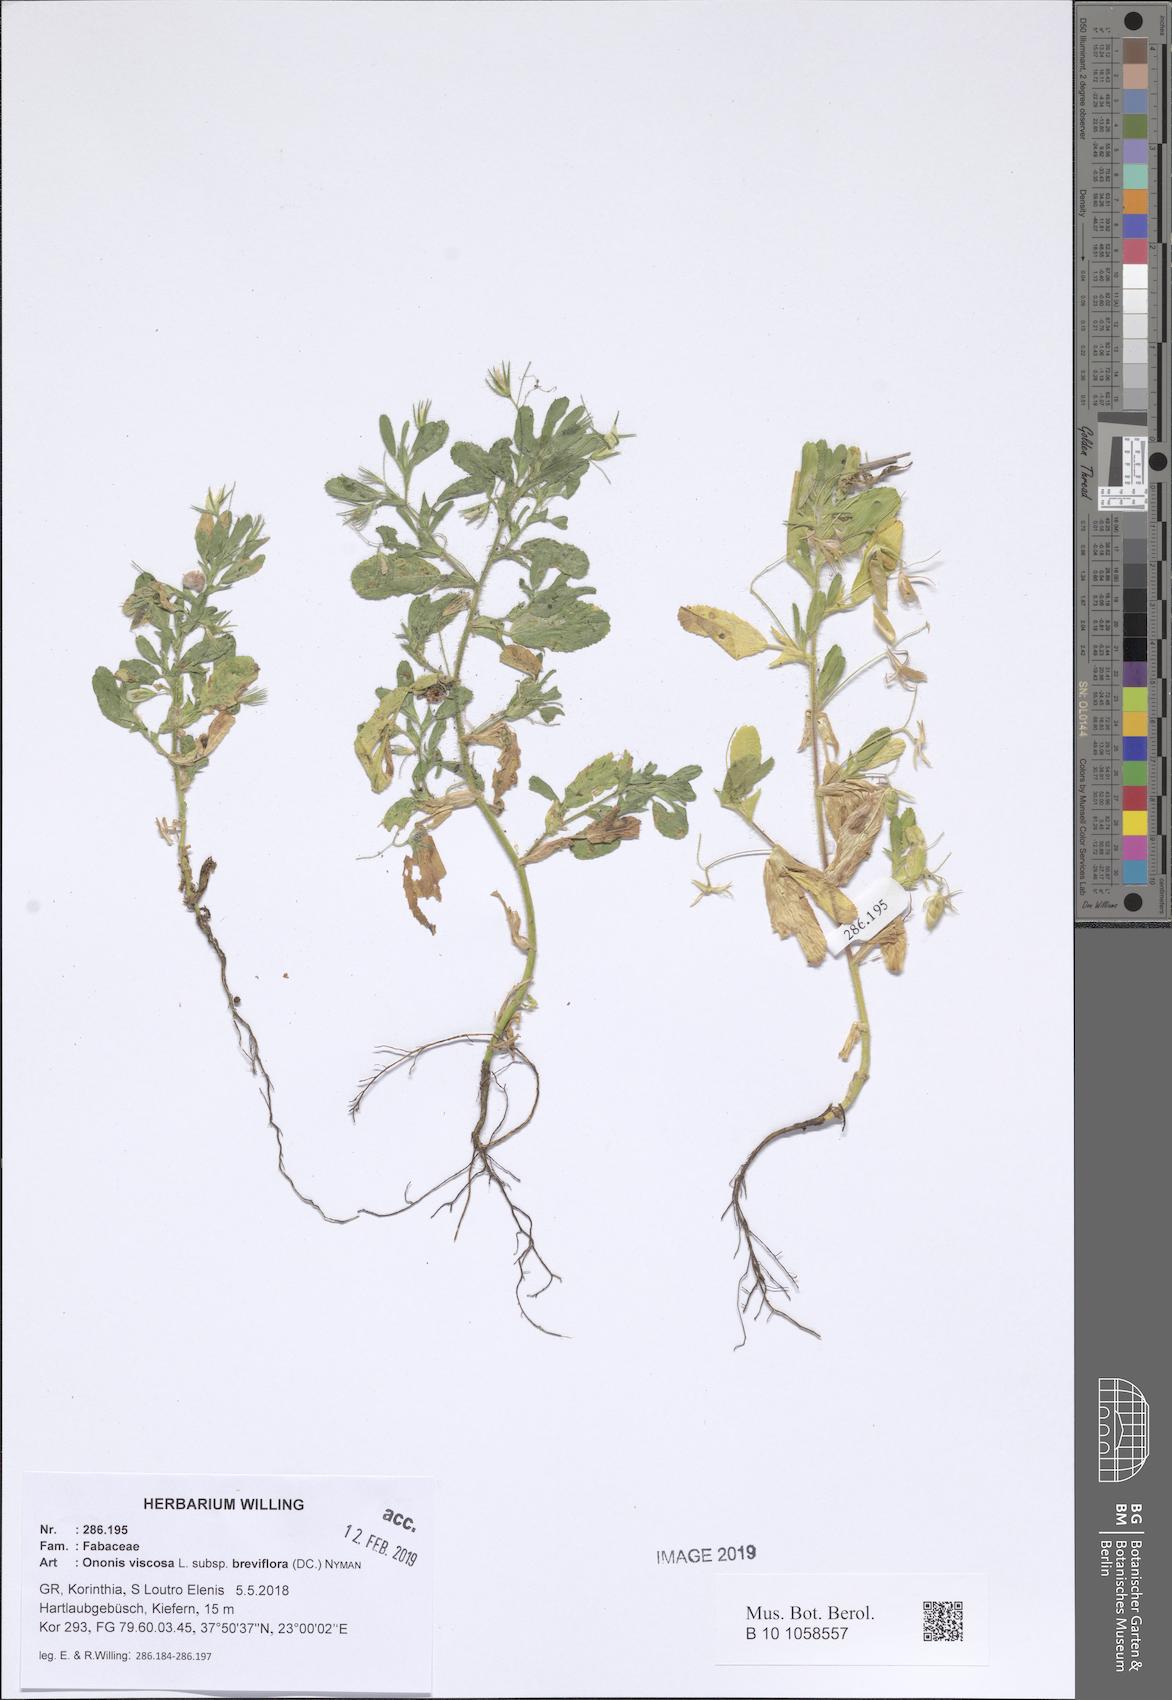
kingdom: Plantae
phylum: Tracheophyta
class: Magnoliopsida
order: Fabales
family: Fabaceae
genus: Ononis
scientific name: Ononis viscosa
